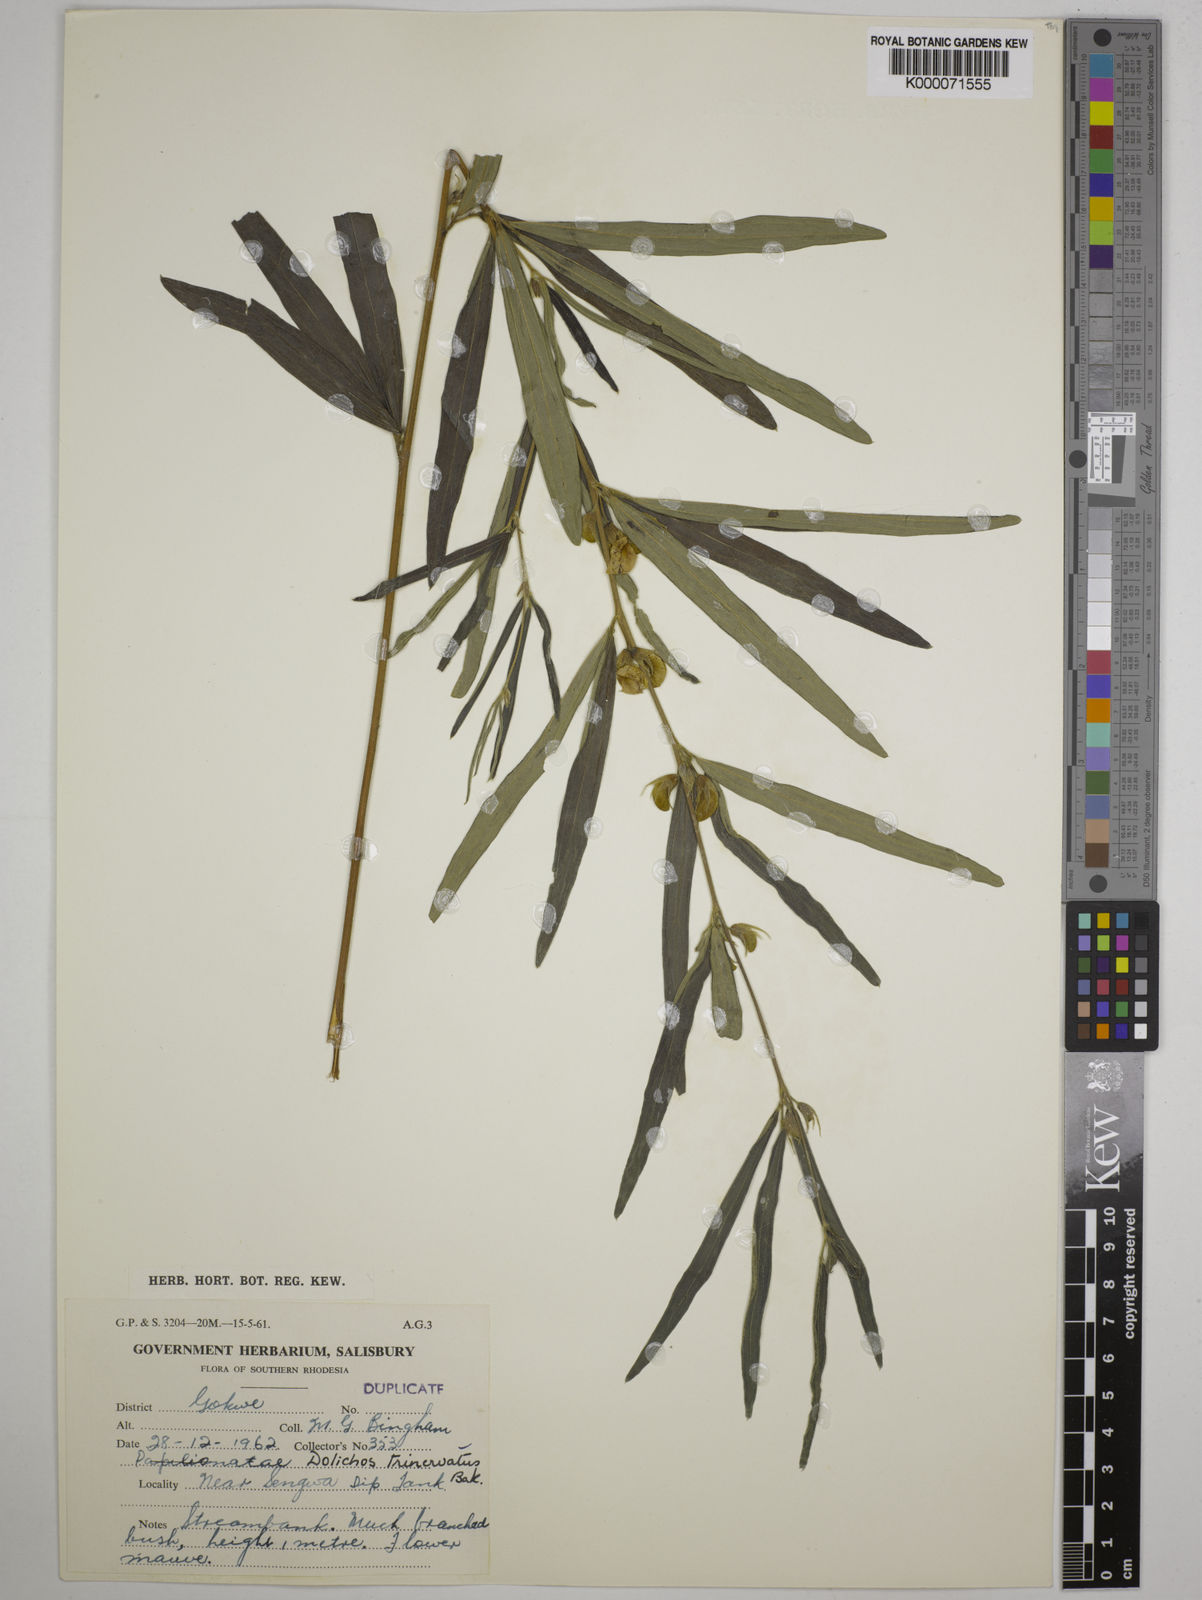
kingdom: Plantae
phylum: Tracheophyta
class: Magnoliopsida
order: Fabales
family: Fabaceae
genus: Dolichos
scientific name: Dolichos trinervatus
